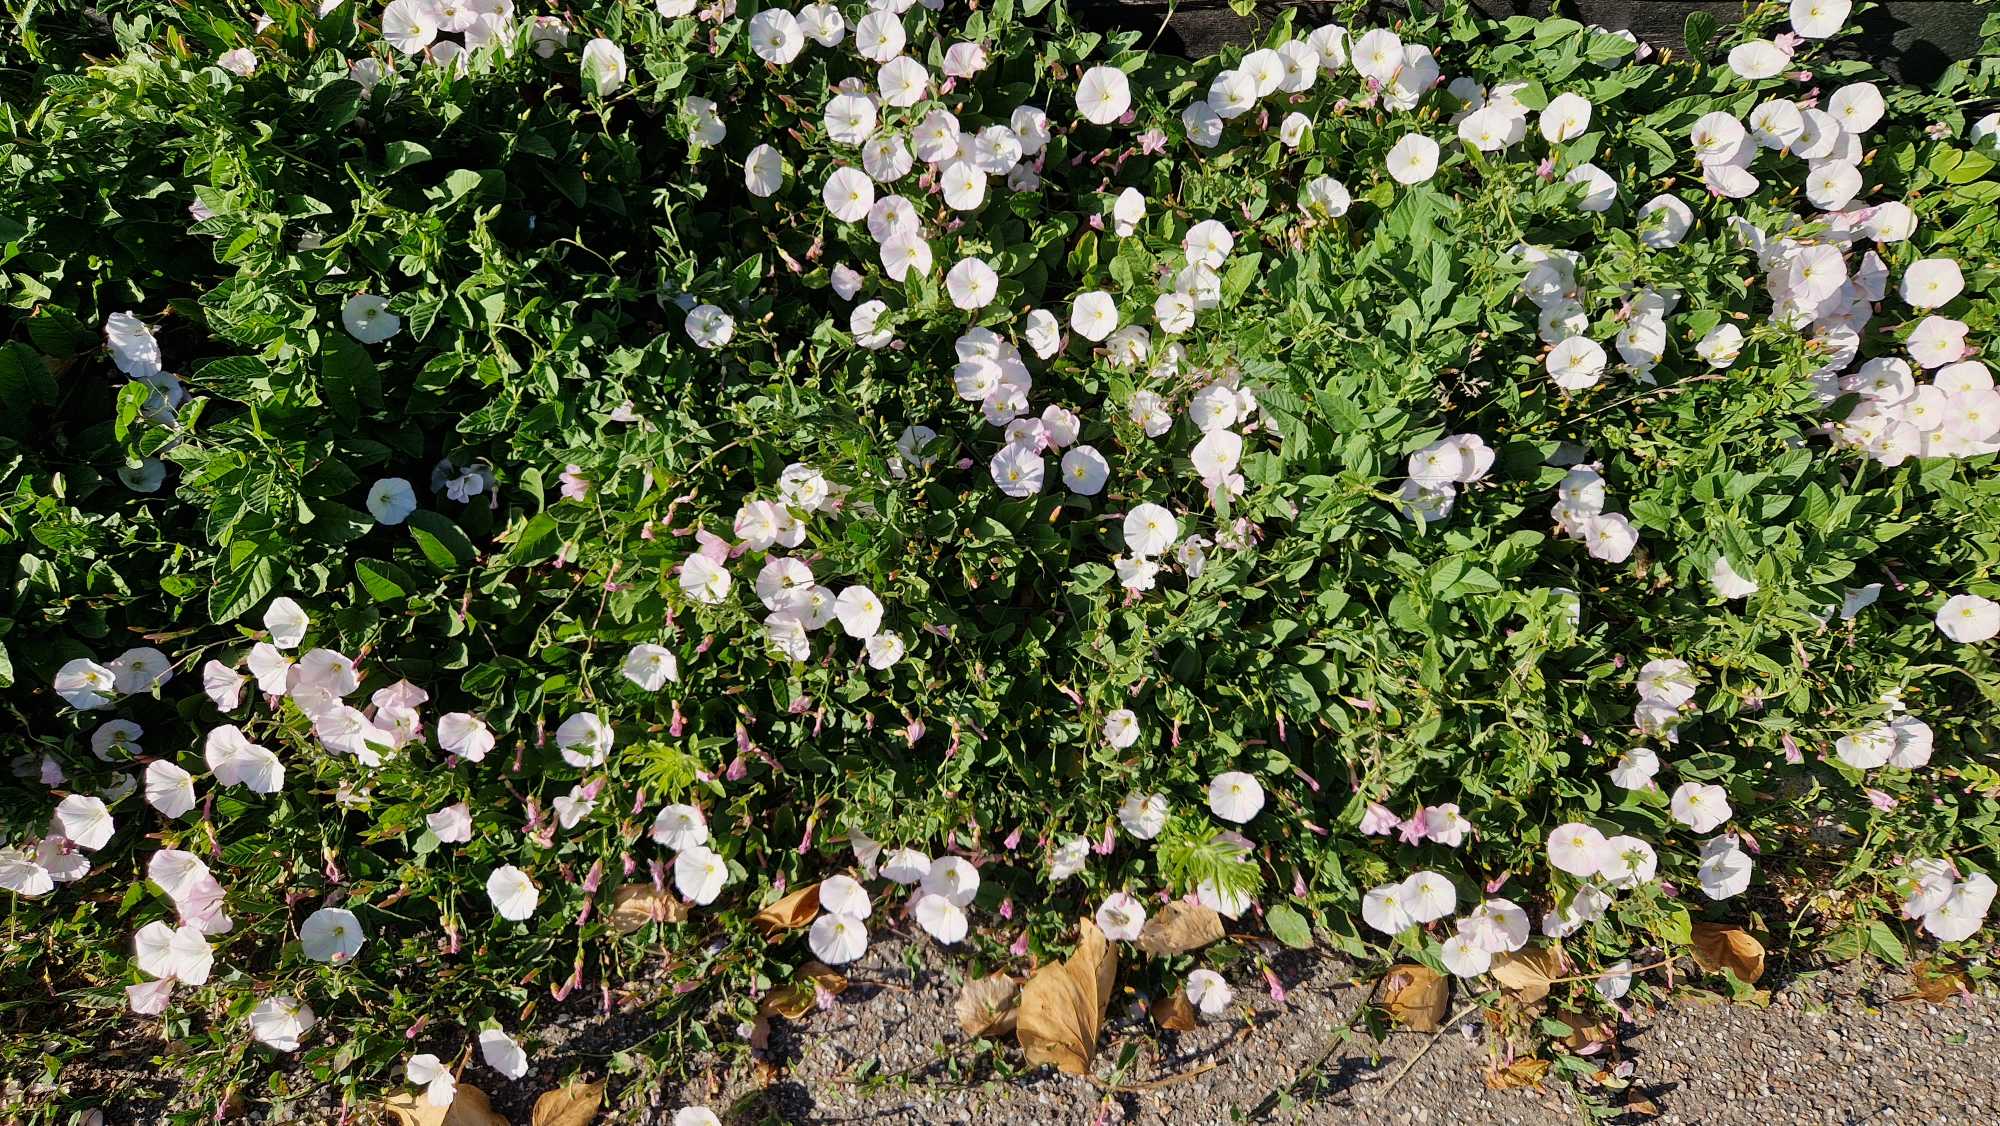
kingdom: Plantae
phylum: Tracheophyta
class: Magnoliopsida
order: Solanales
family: Convolvulaceae
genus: Convolvulus
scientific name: Convolvulus arvensis
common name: Ager-snerle
